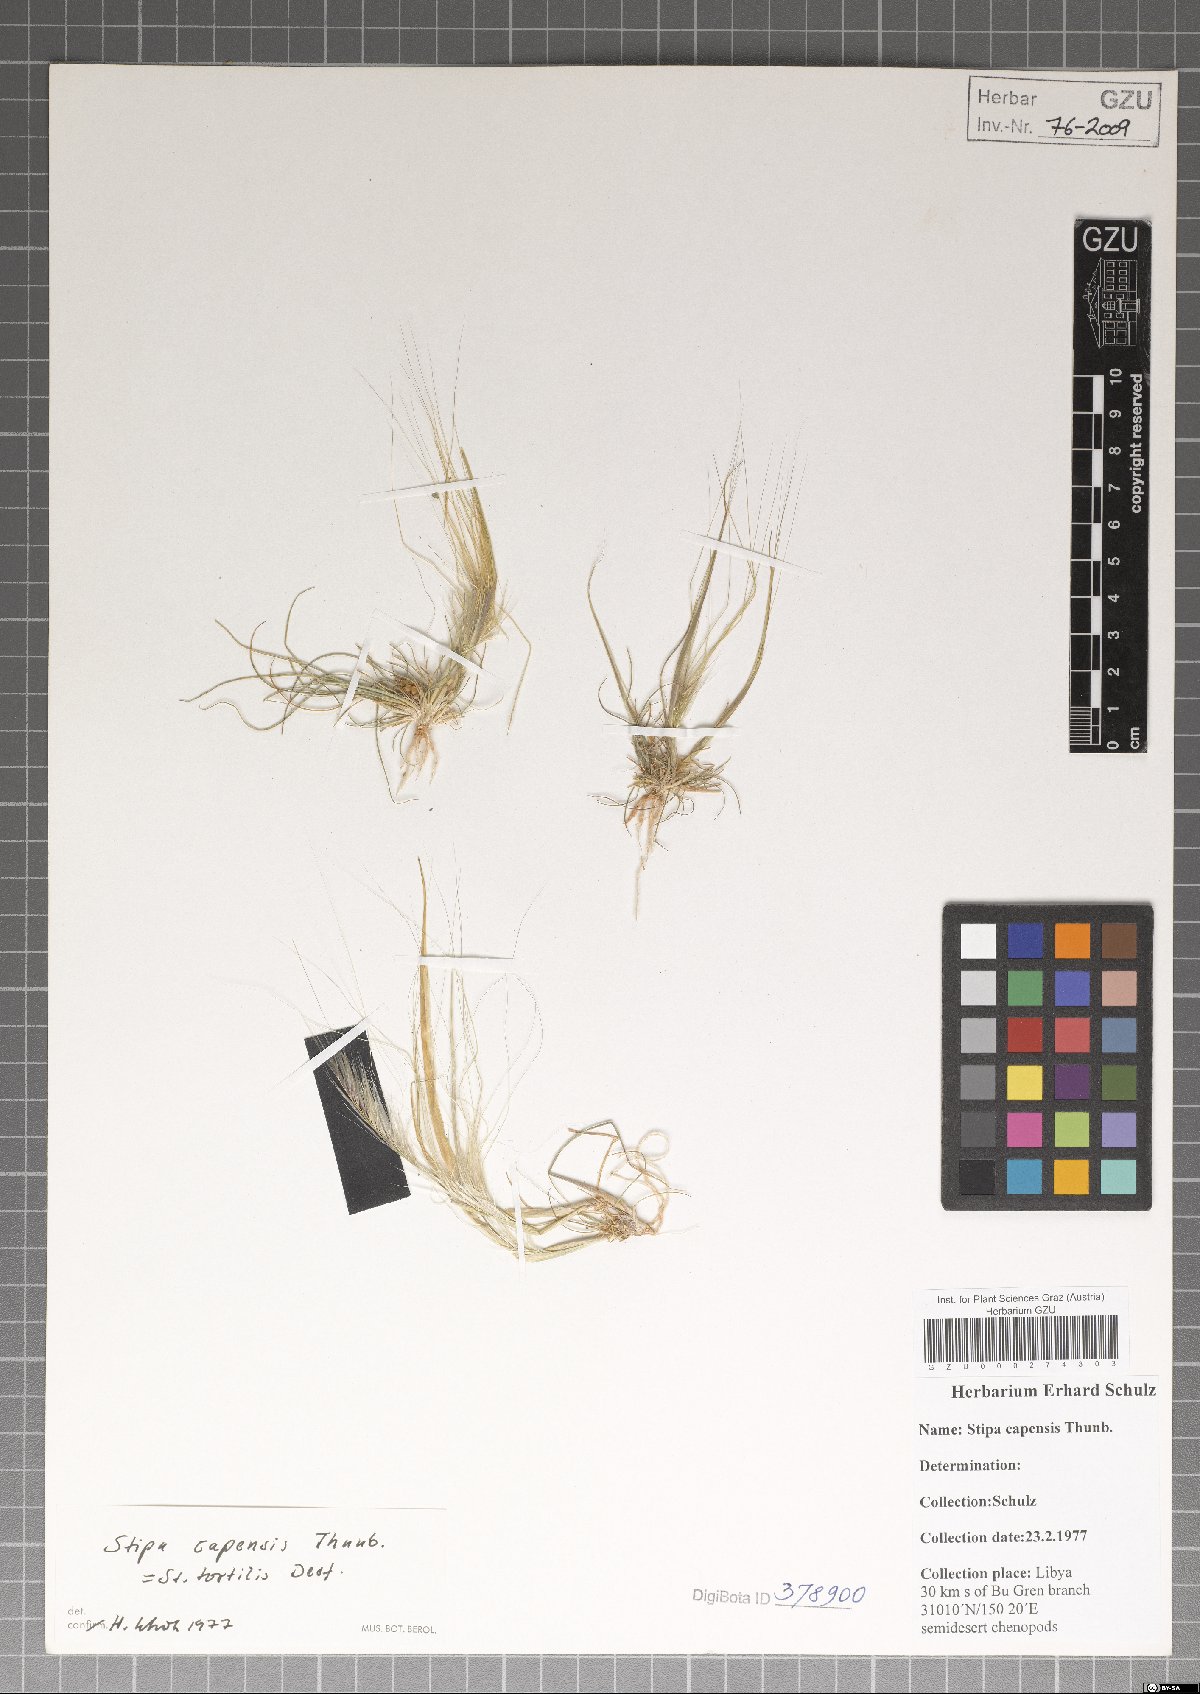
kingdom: Plantae
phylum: Tracheophyta
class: Liliopsida
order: Poales
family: Poaceae
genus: Stipellula
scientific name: Stipellula capensis
